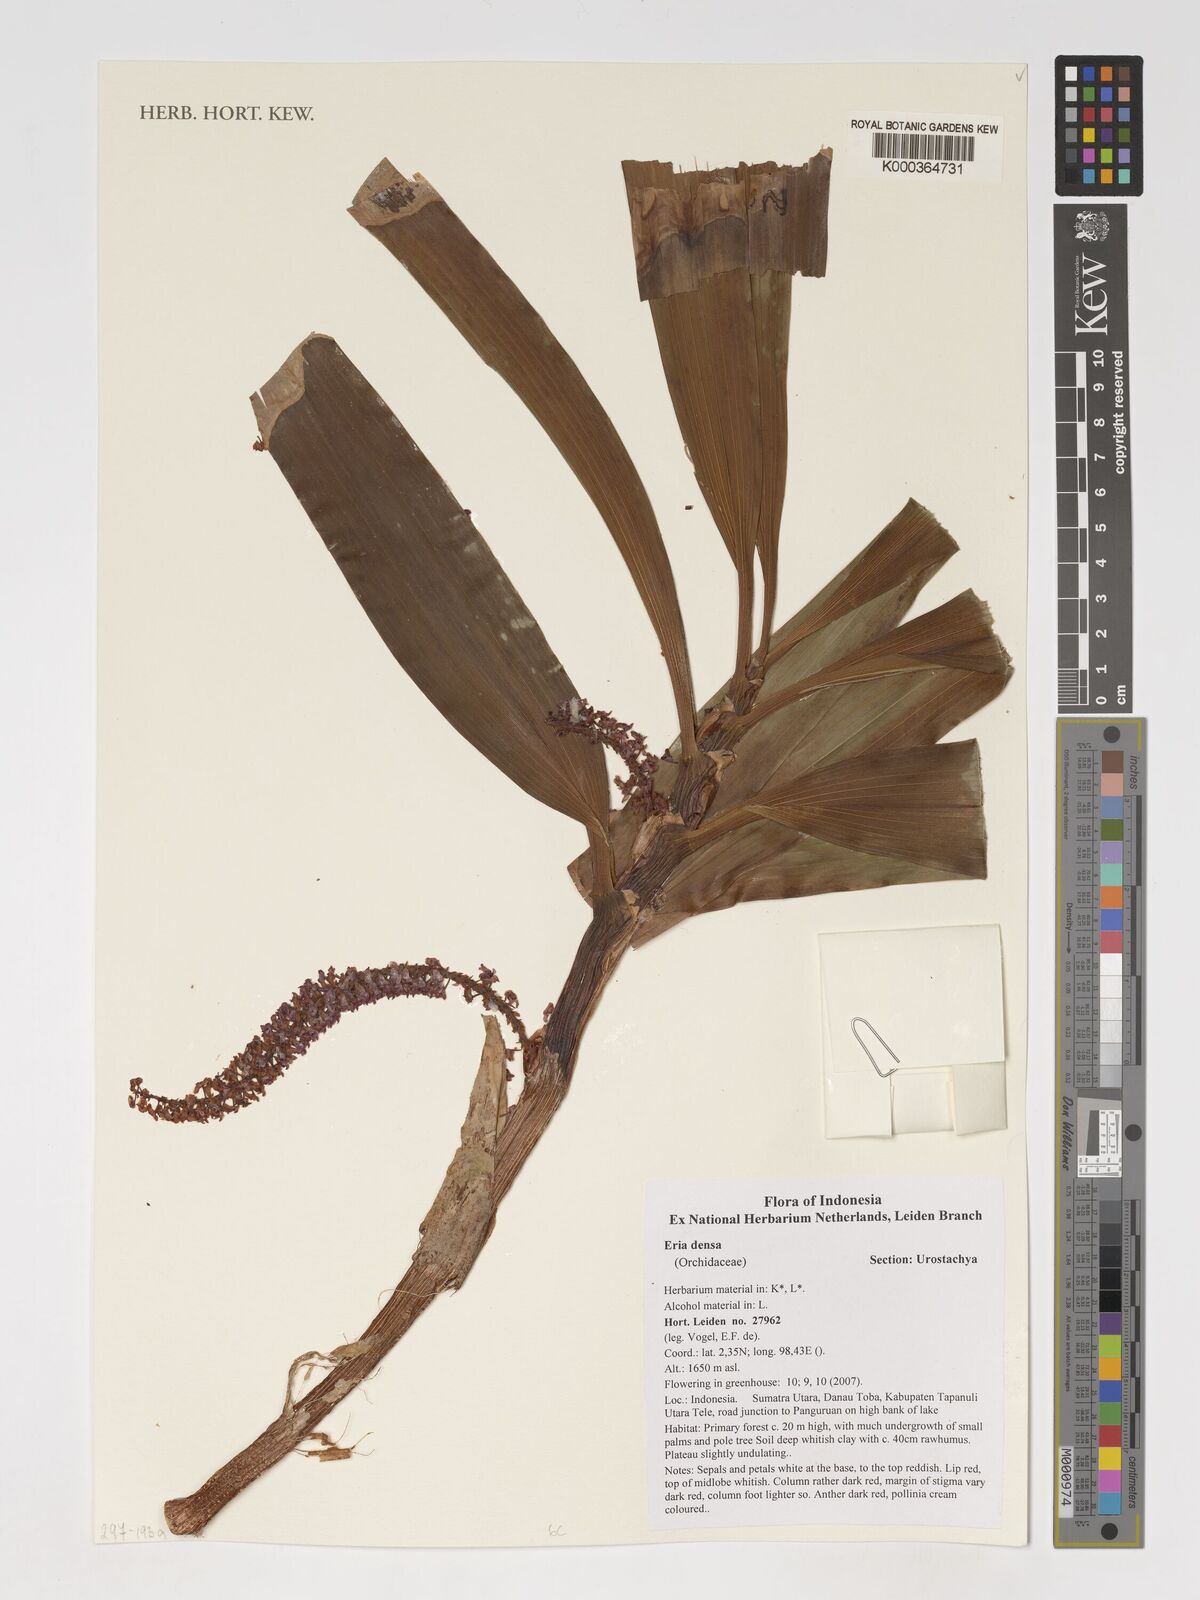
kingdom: Plantae
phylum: Tracheophyta
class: Liliopsida
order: Asparagales
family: Orchidaceae
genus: Pinalia
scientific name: Pinalia densa
